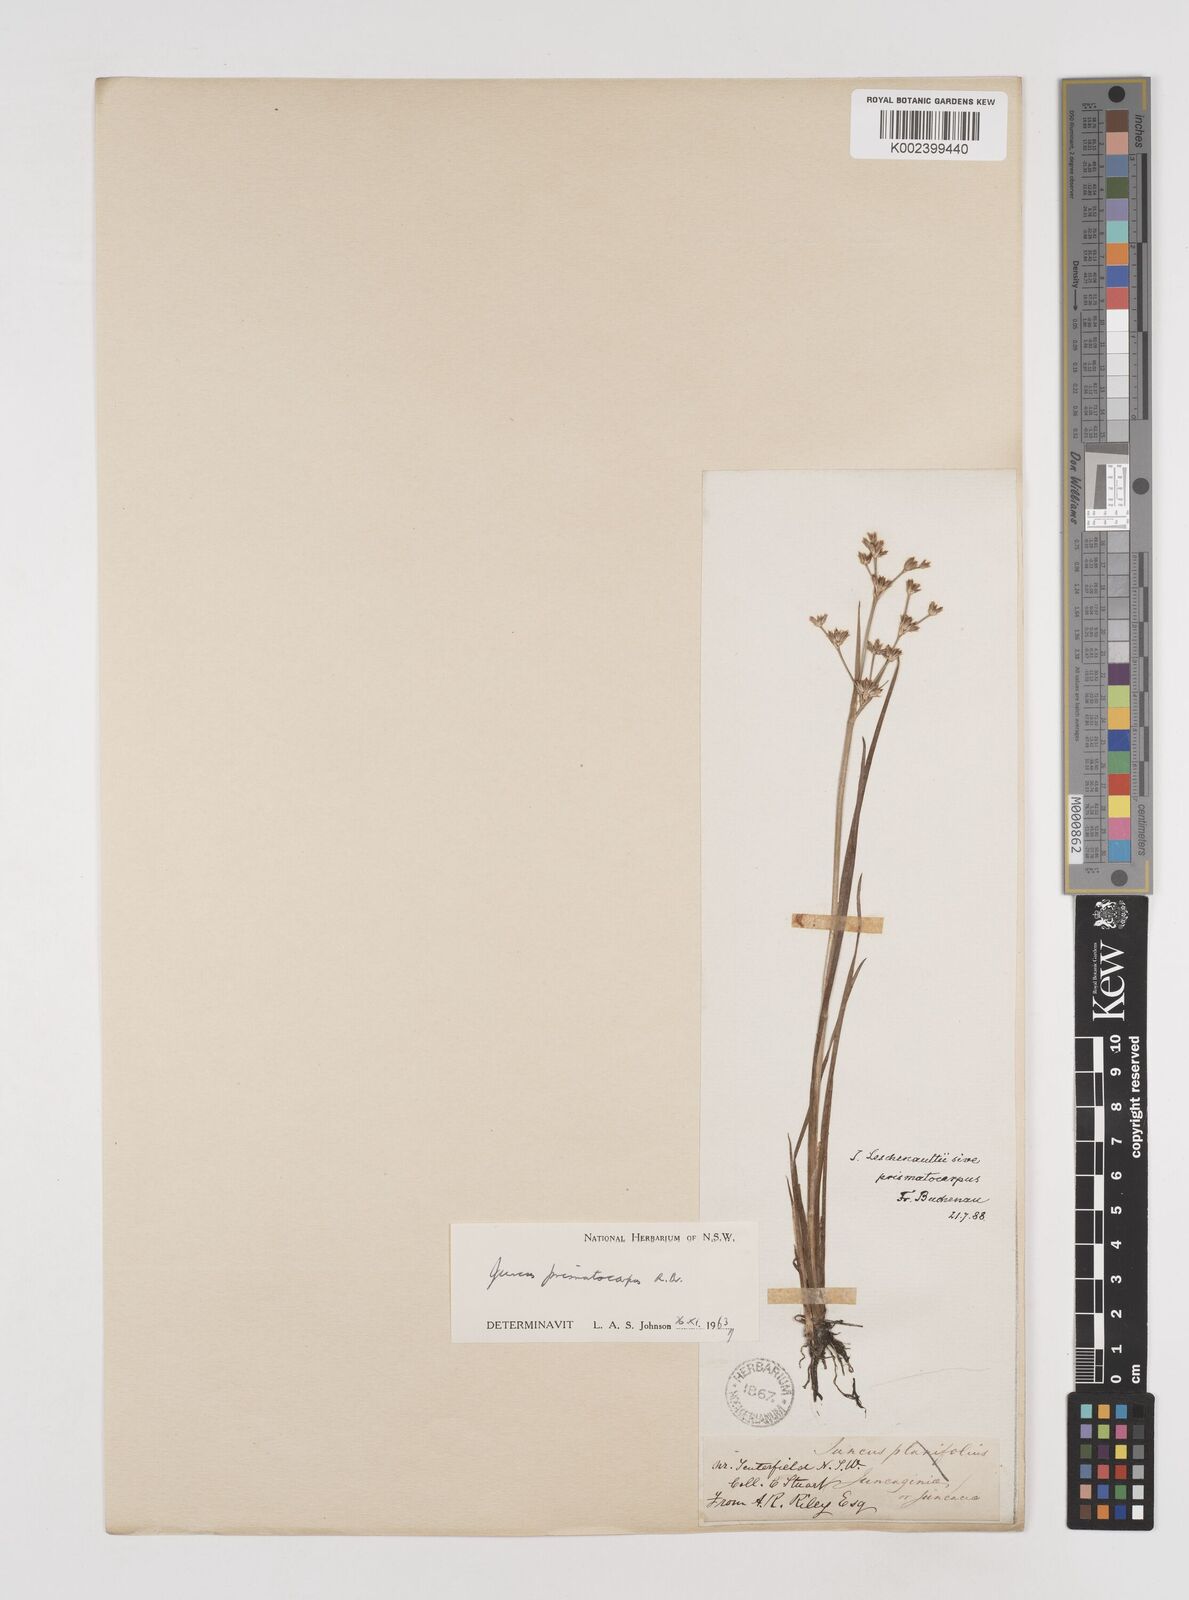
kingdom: Plantae
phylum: Tracheophyta
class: Liliopsida
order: Poales
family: Juncaceae
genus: Juncus
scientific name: Juncus prismatocarpus
